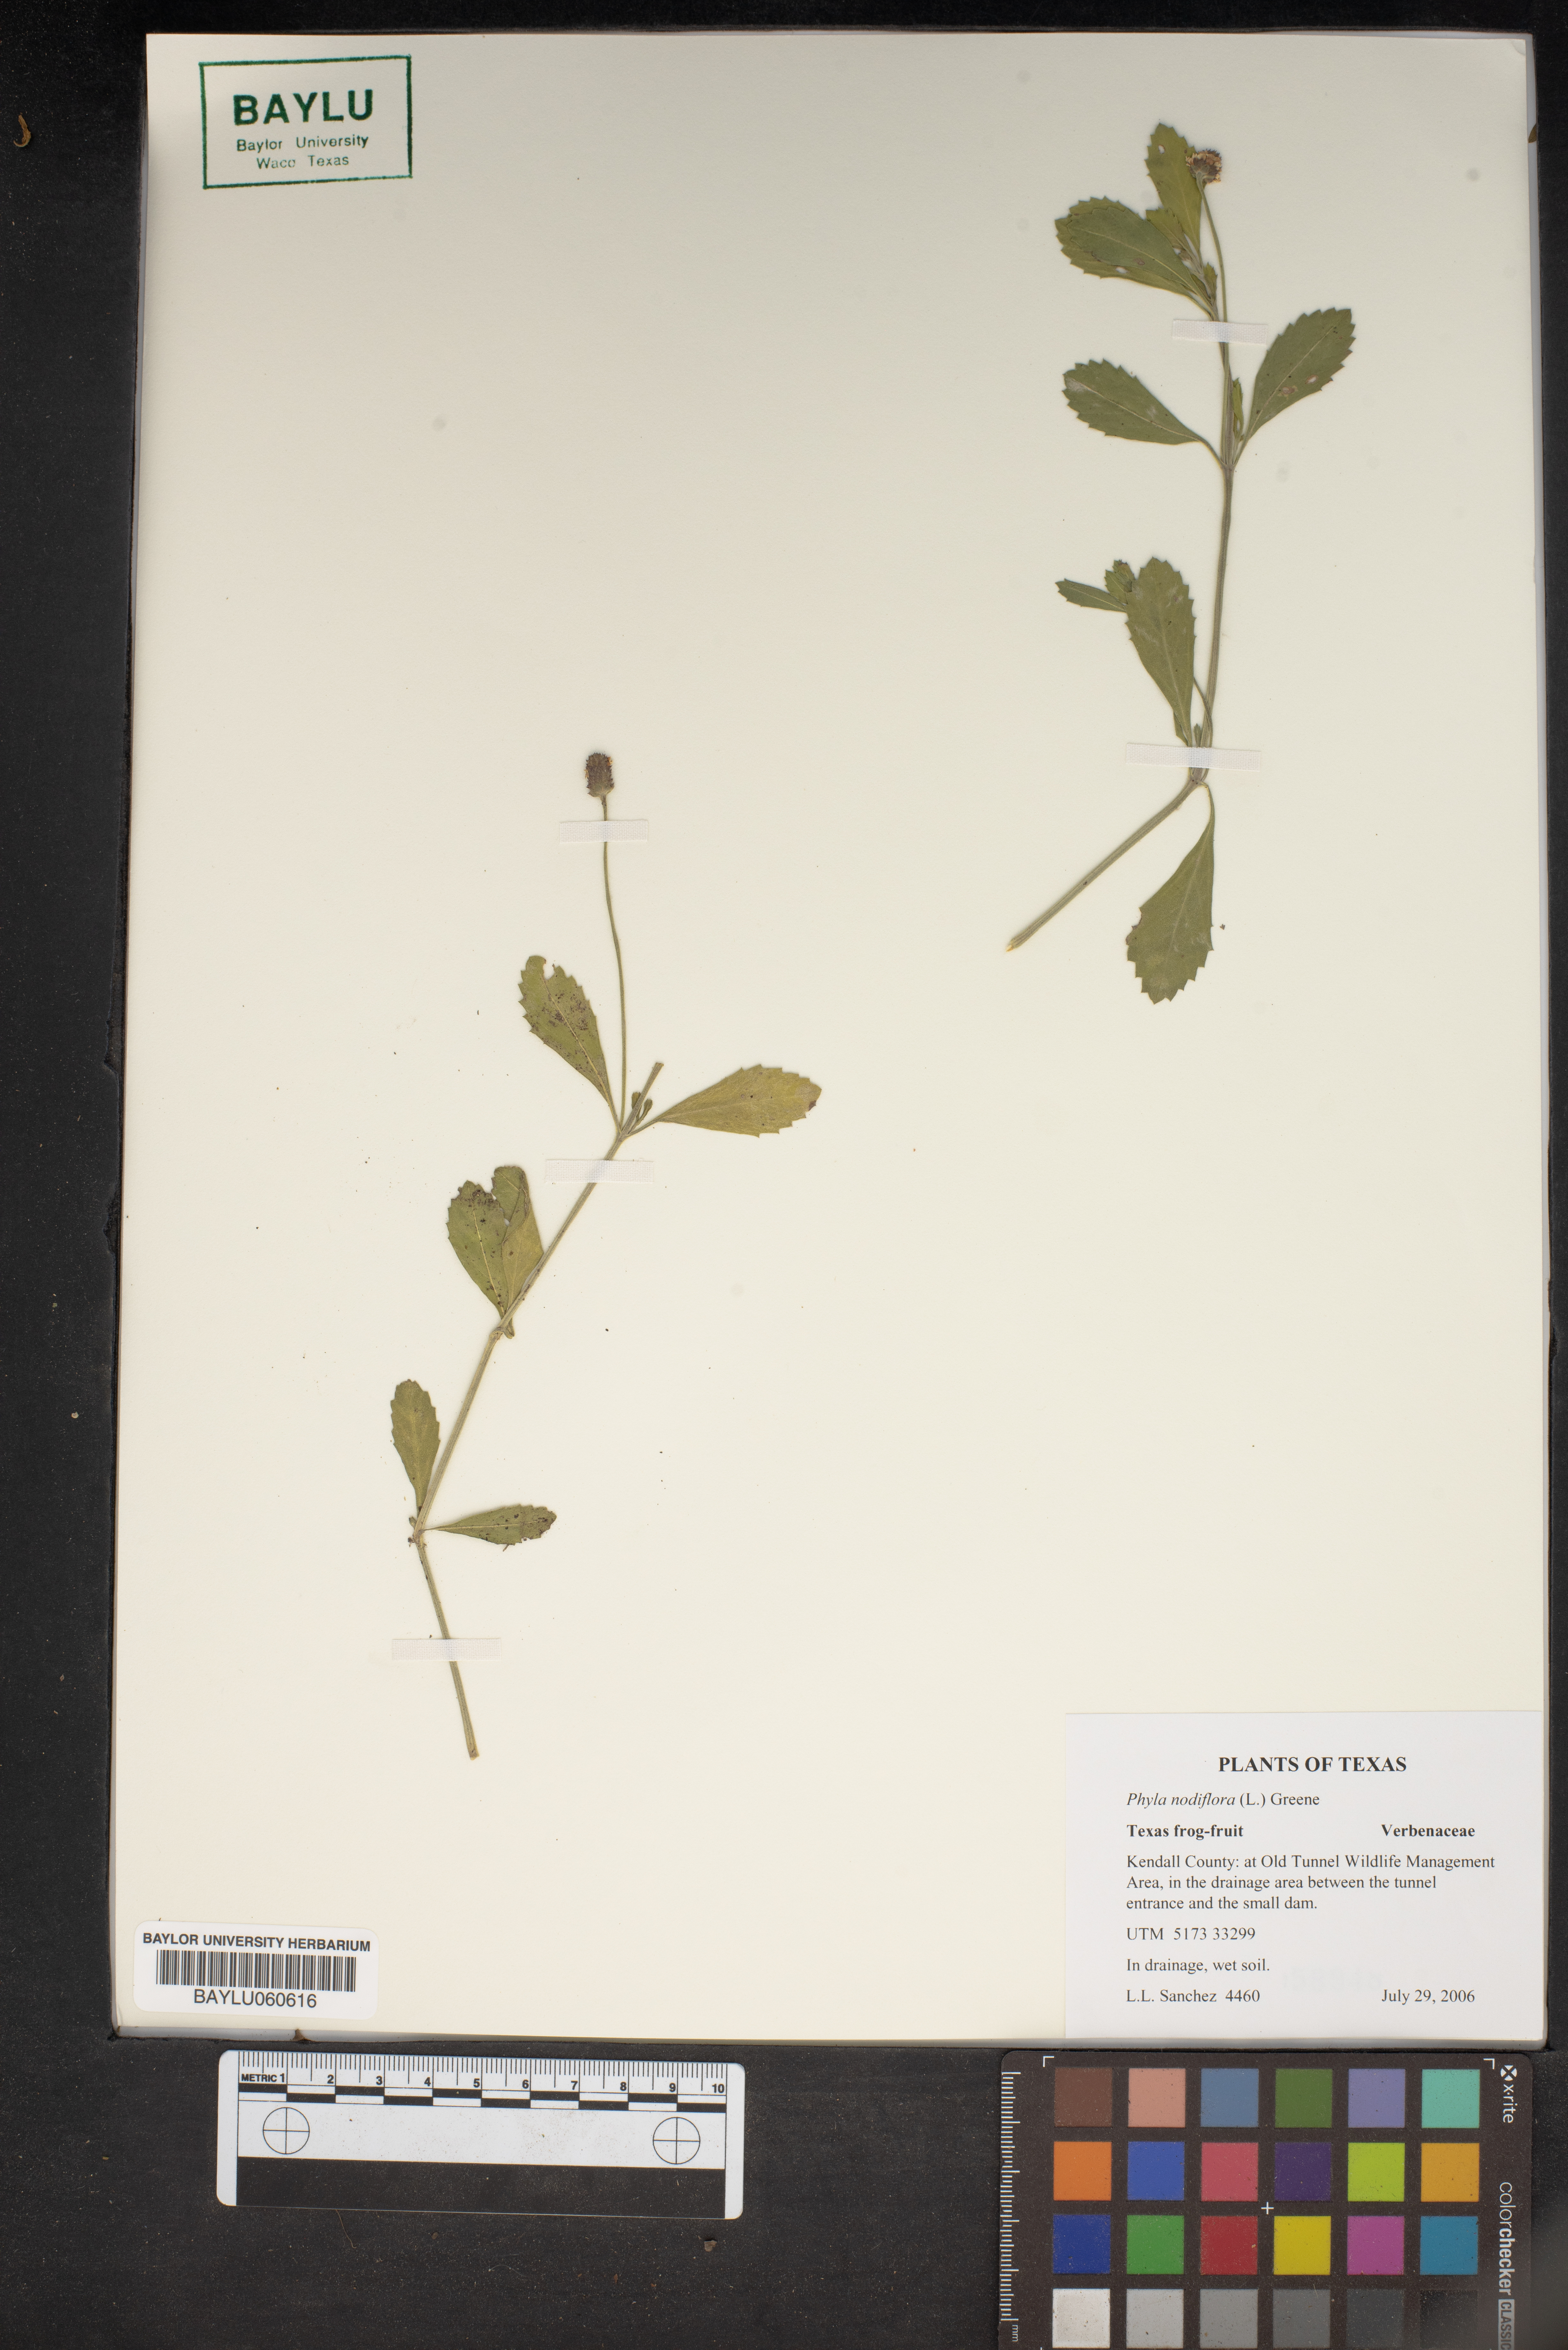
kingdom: Plantae
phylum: Tracheophyta
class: Magnoliopsida
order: Lamiales
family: Verbenaceae
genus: Phyla
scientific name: Phyla nodiflora
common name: Frogfruit
